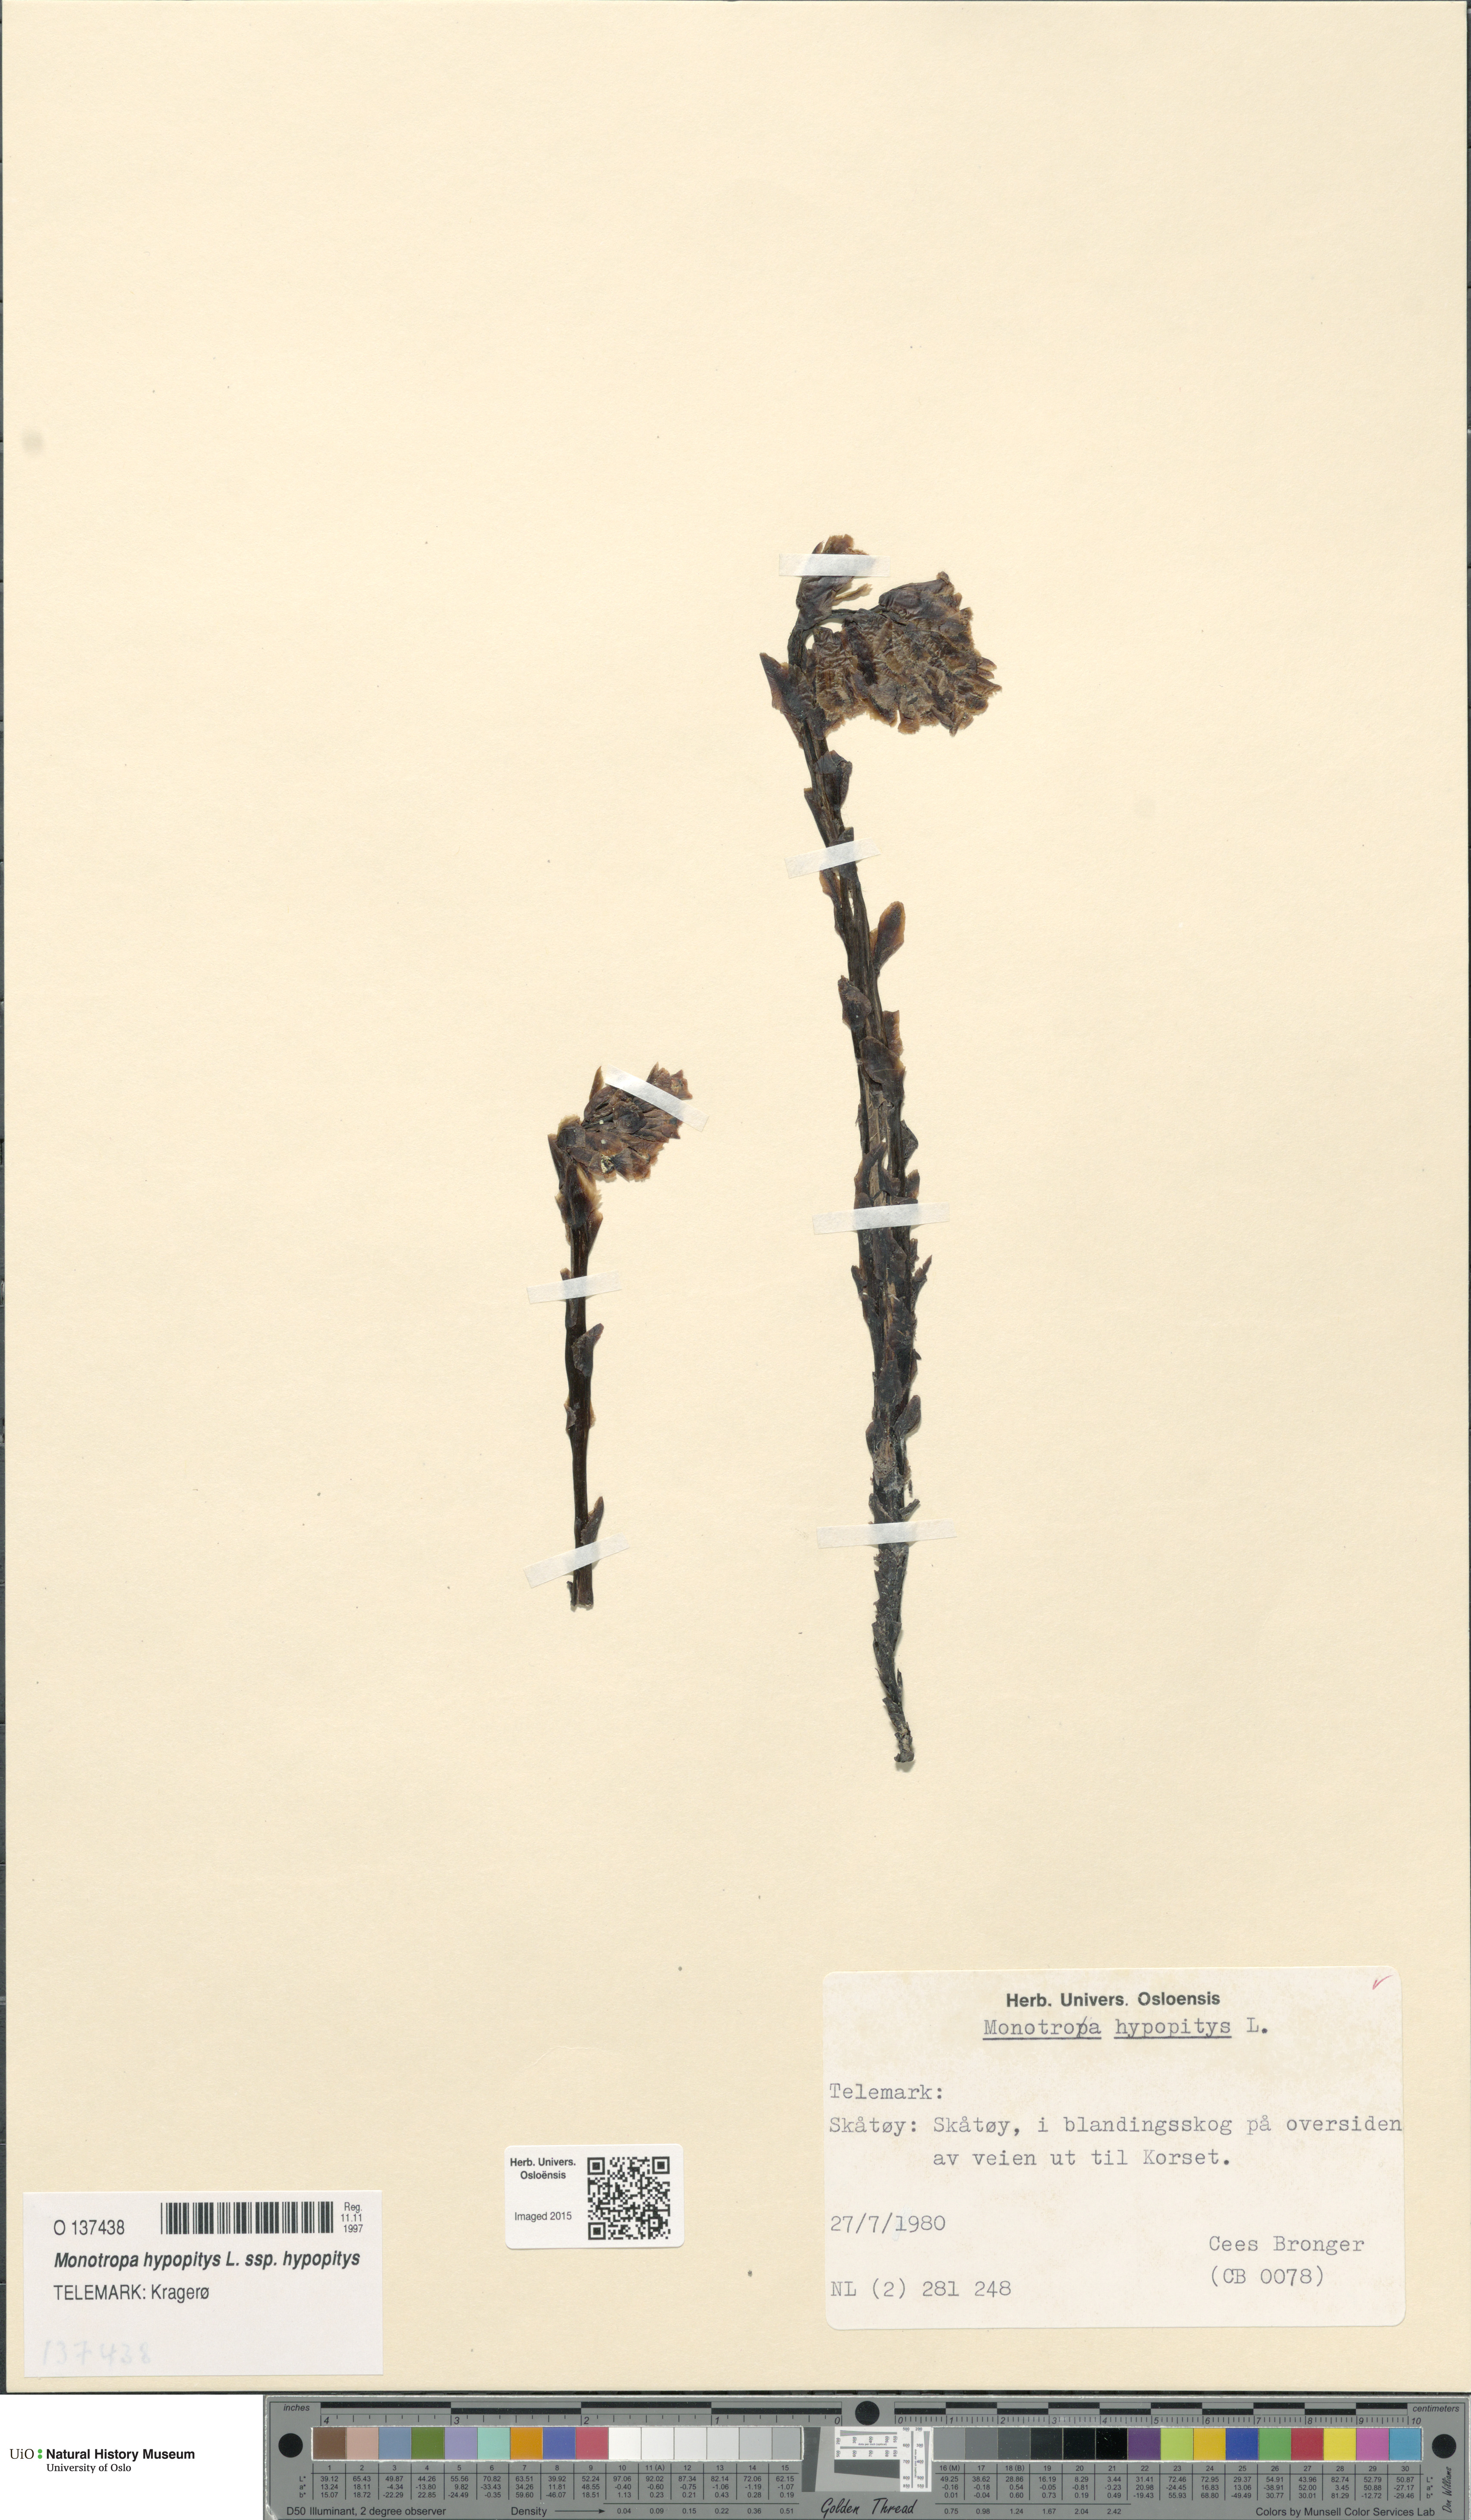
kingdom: Plantae
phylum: Tracheophyta
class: Magnoliopsida
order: Ericales
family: Ericaceae
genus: Hypopitys
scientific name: Hypopitys monotropa
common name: Yellow bird's-nest
